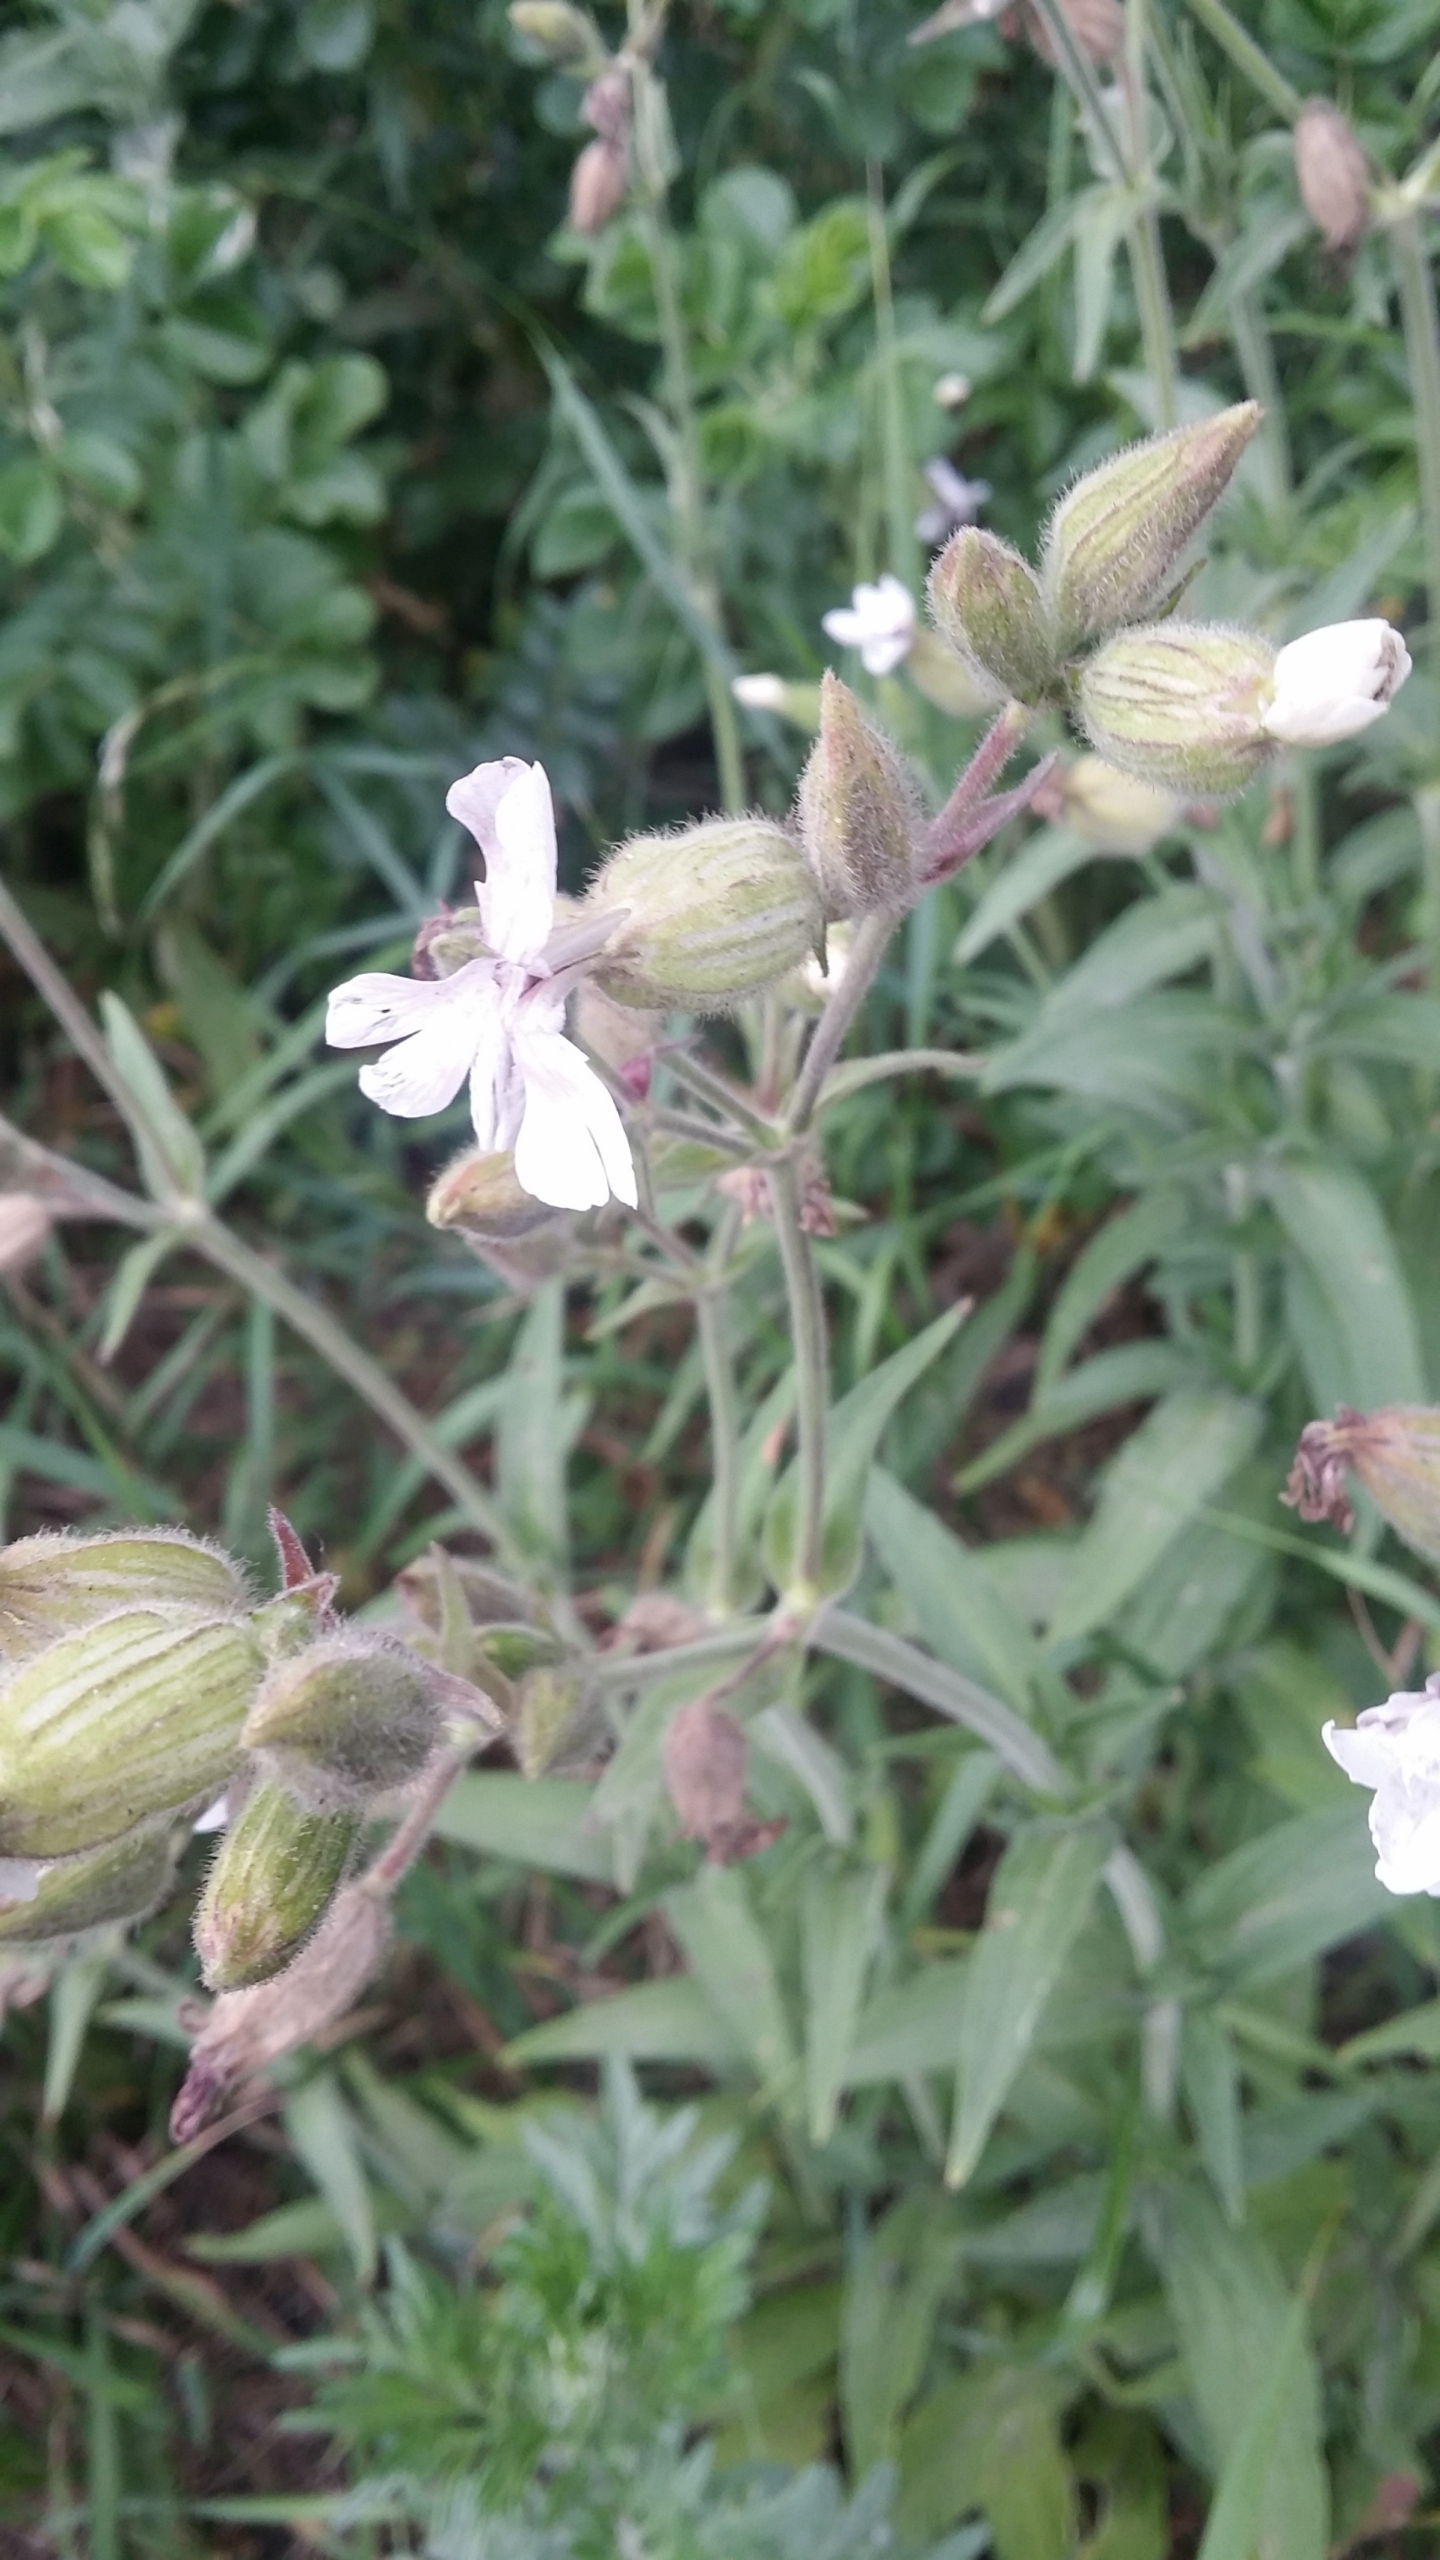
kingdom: Plantae
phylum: Tracheophyta
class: Magnoliopsida
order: Caryophyllales
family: Caryophyllaceae
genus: Silene
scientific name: Silene latifolia
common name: Aftenpragtstjerne
